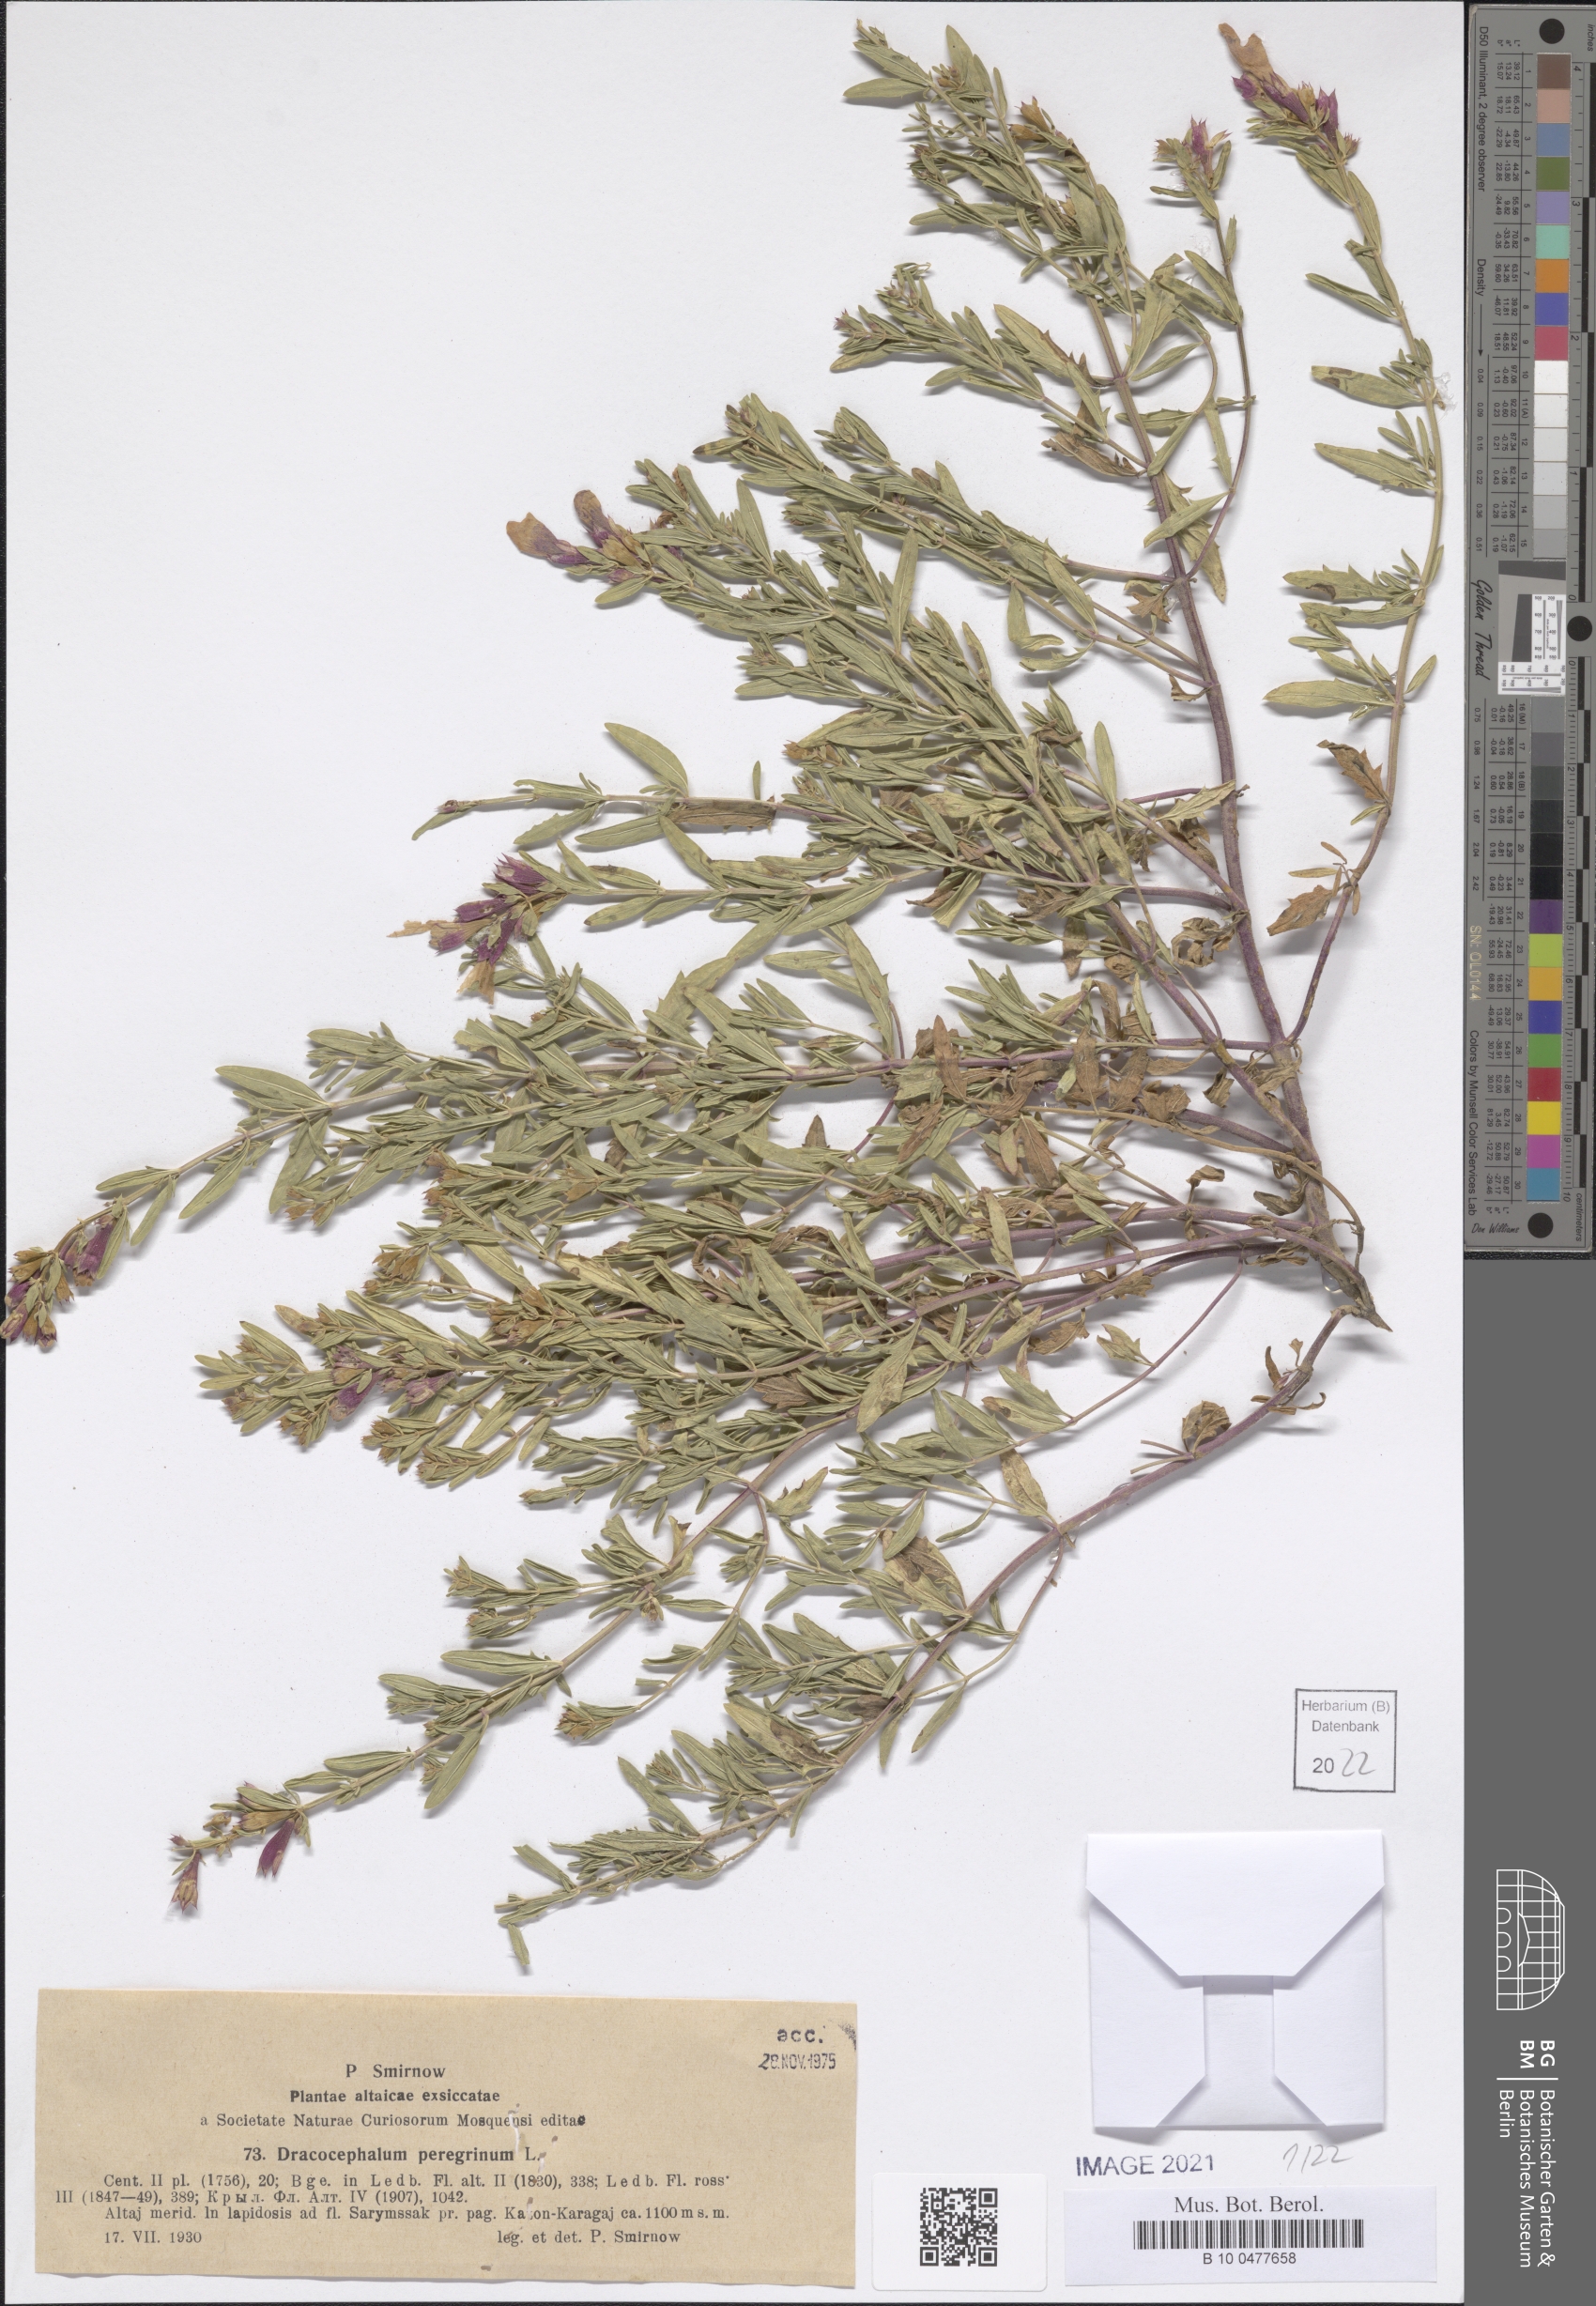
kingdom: Plantae
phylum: Tracheophyta
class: Magnoliopsida
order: Lamiales
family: Lamiaceae
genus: Dracocephalum
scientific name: Dracocephalum peregrinum
